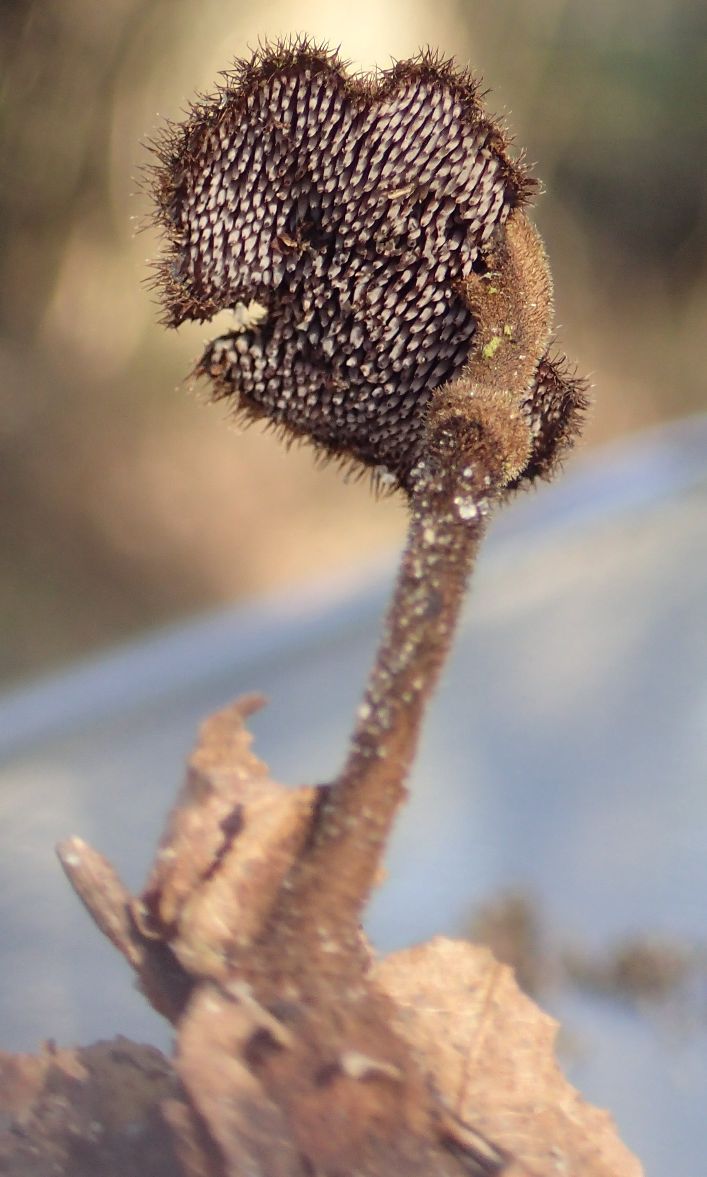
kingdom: Fungi
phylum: Basidiomycota
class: Agaricomycetes
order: Russulales
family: Auriscalpiaceae
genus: Auriscalpium
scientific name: Auriscalpium vulgare
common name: koglepigsvamp
